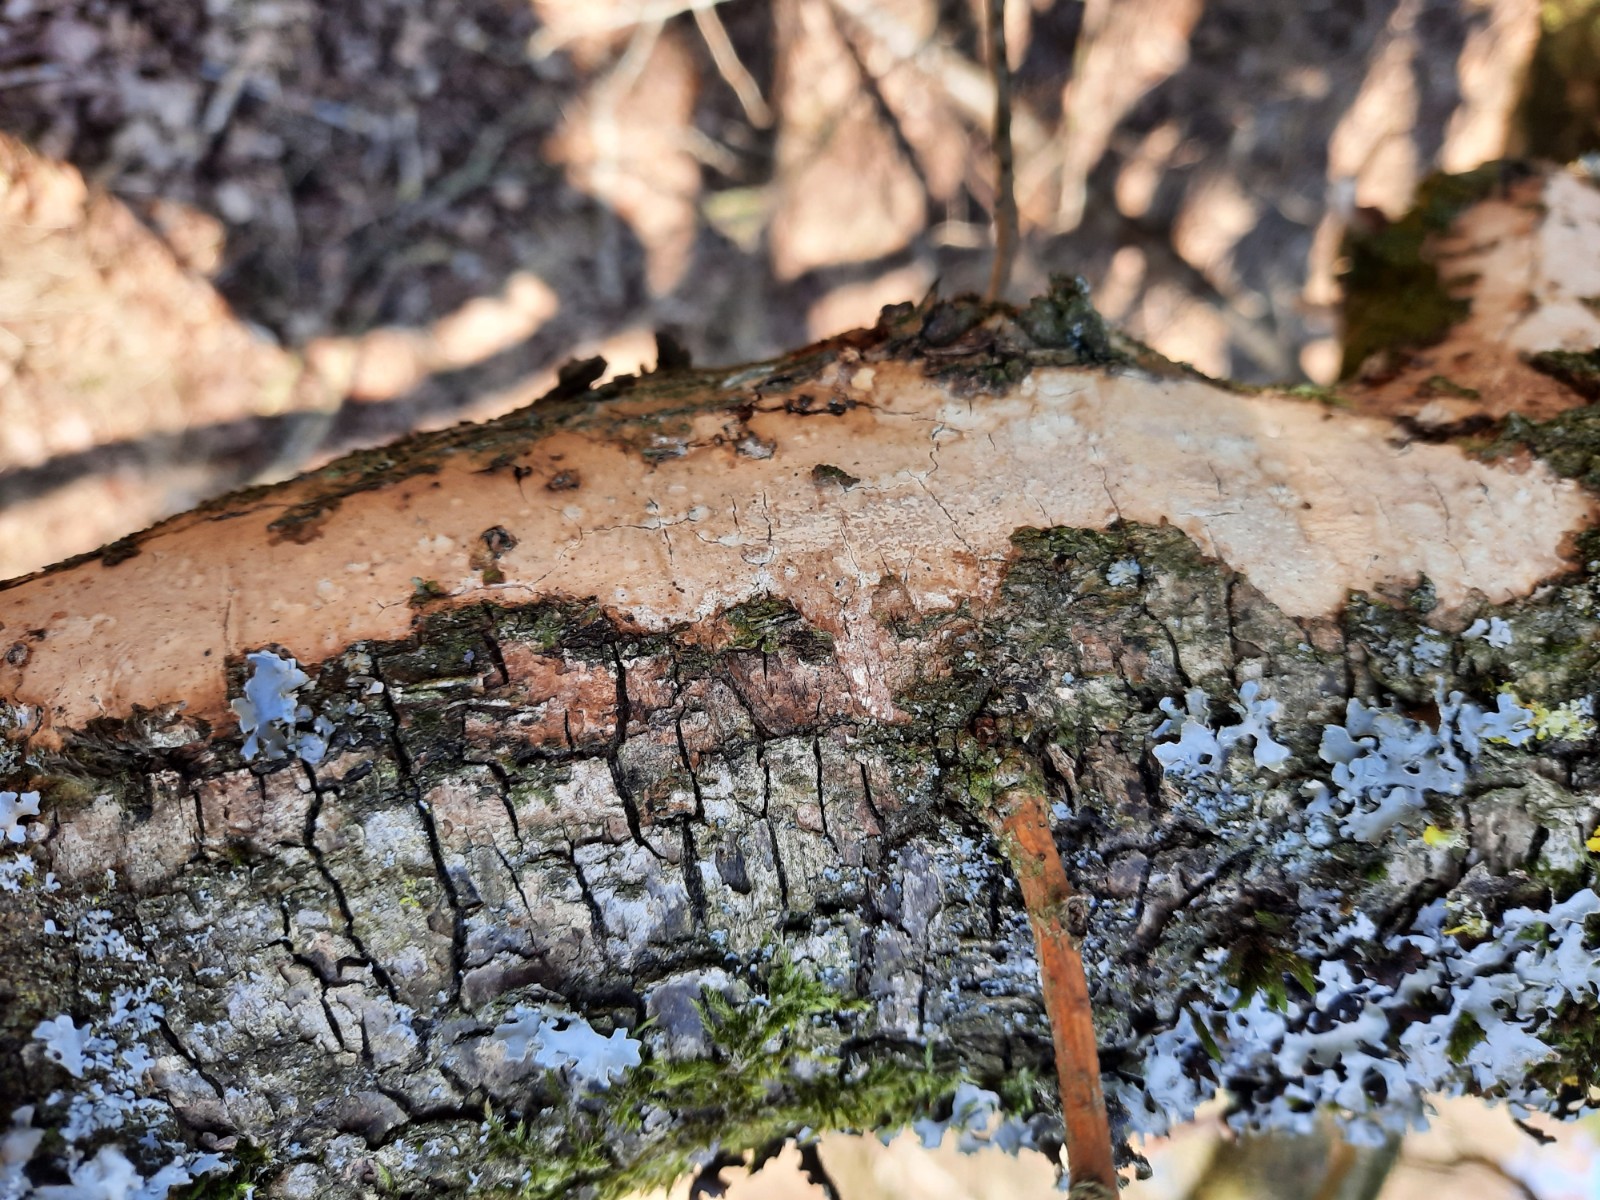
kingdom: Fungi
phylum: Basidiomycota
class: Agaricomycetes
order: Corticiales
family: Vuilleminiaceae
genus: Vuilleminia
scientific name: Vuilleminia comedens
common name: almindelig barksprænger
